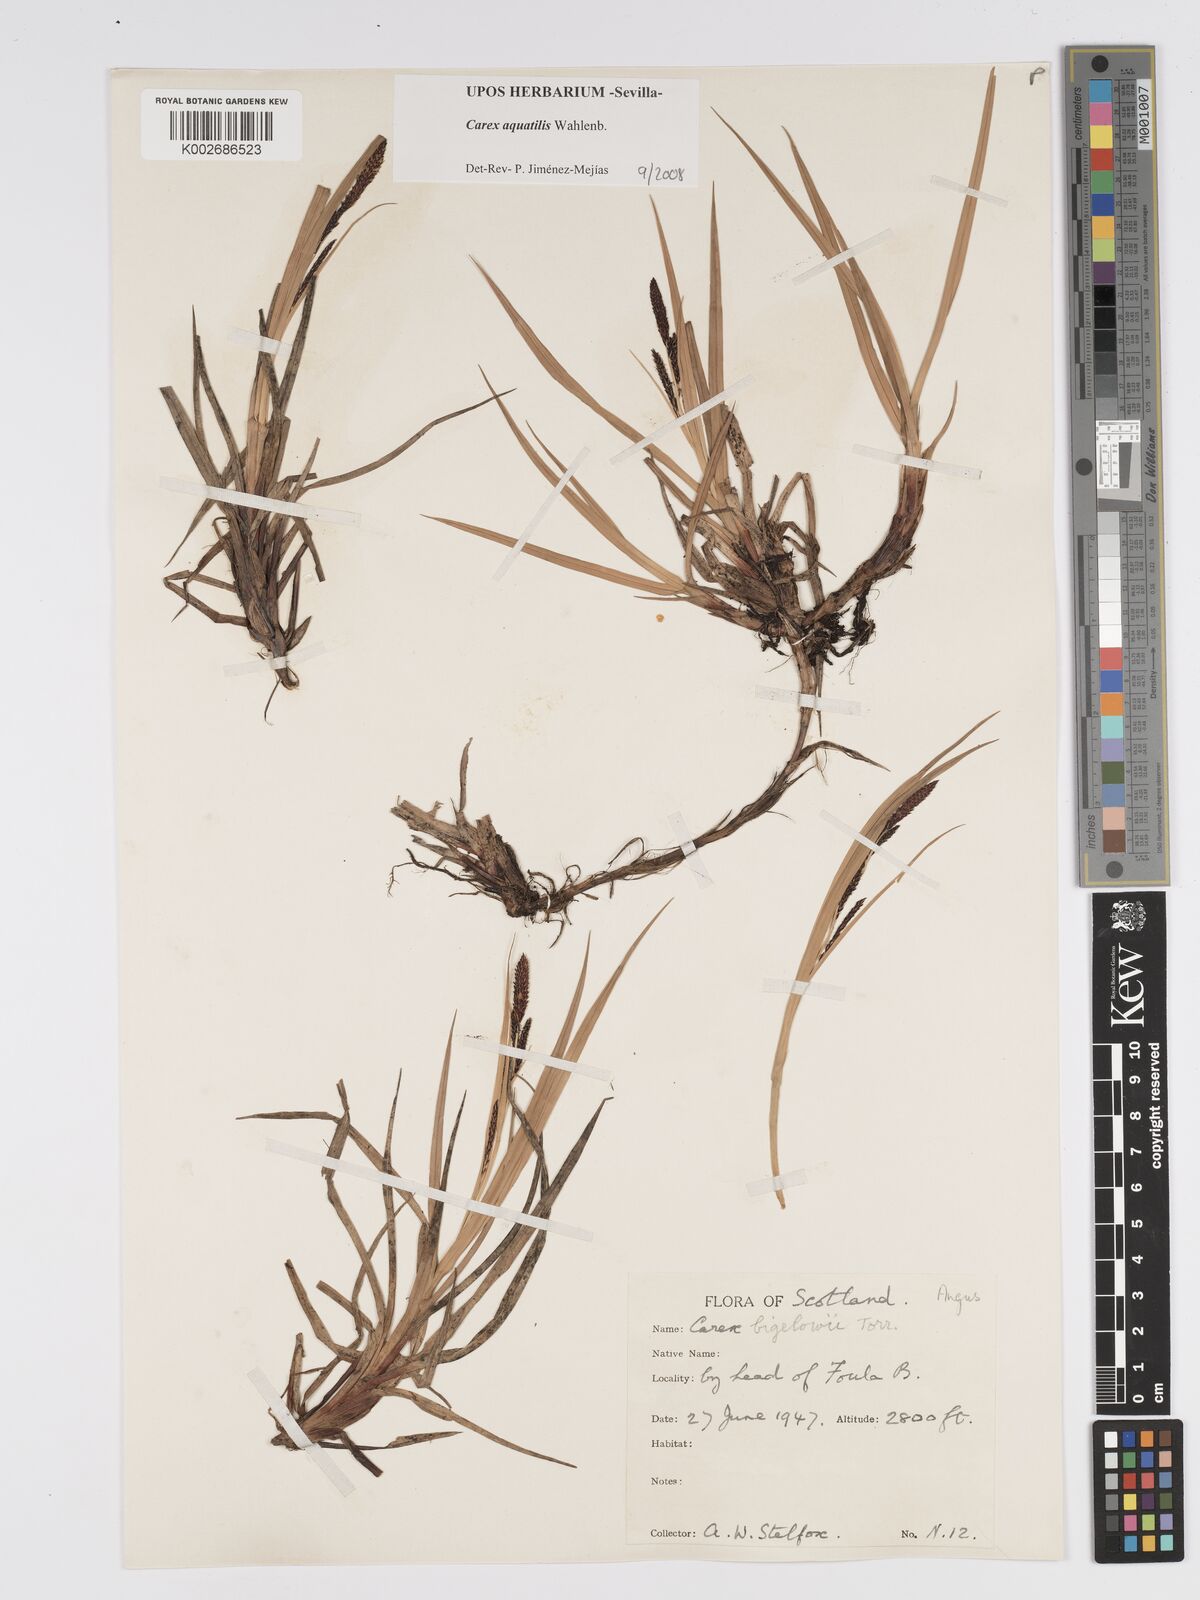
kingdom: Plantae
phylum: Tracheophyta
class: Liliopsida
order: Poales
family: Cyperaceae
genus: Carex
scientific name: Carex aquatilis
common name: Water sedge
